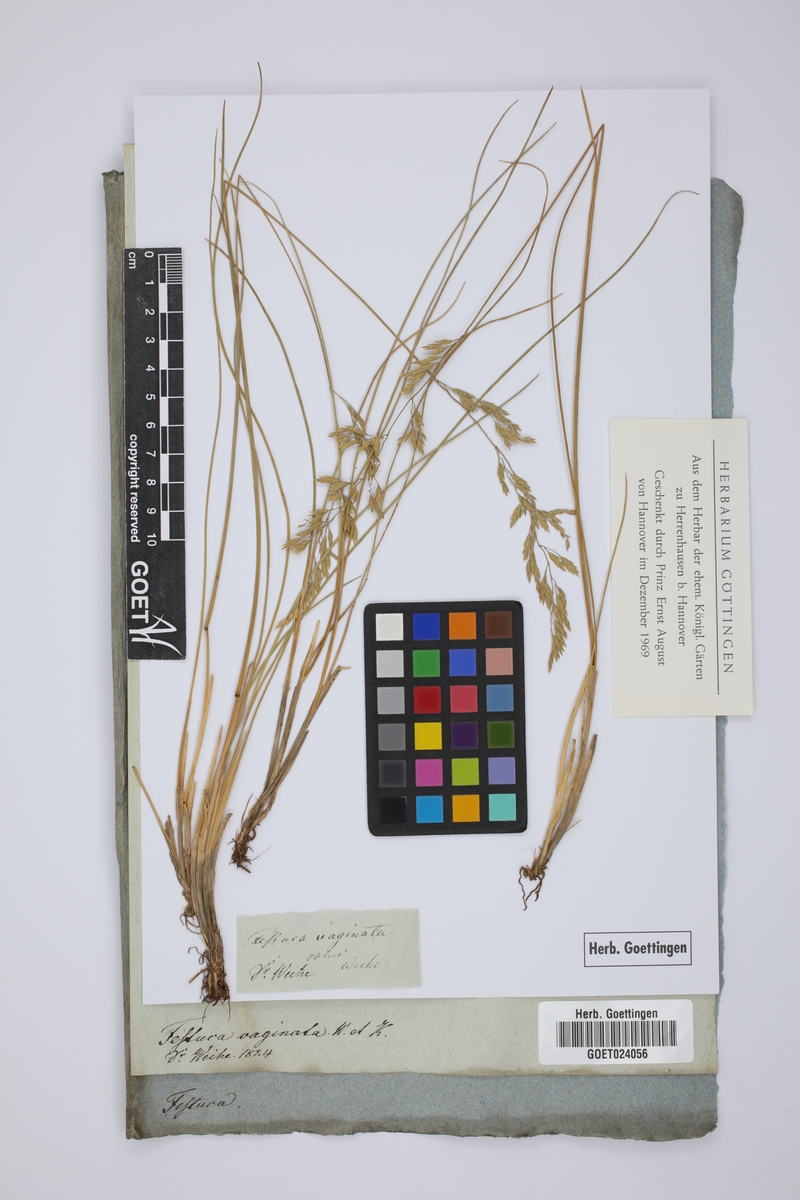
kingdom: Plantae
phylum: Tracheophyta
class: Liliopsida
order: Poales
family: Poaceae
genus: Festuca
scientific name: Festuca vaginata
